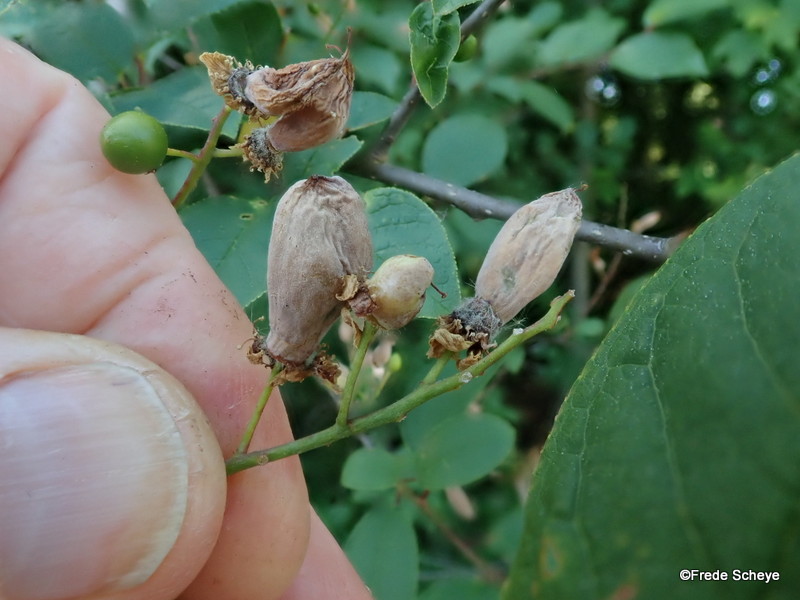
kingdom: Fungi
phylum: Ascomycota
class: Taphrinomycetes
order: Taphrinales
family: Taphrinaceae
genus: Taphrina
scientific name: Taphrina padi
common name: Bird cherry pocket
